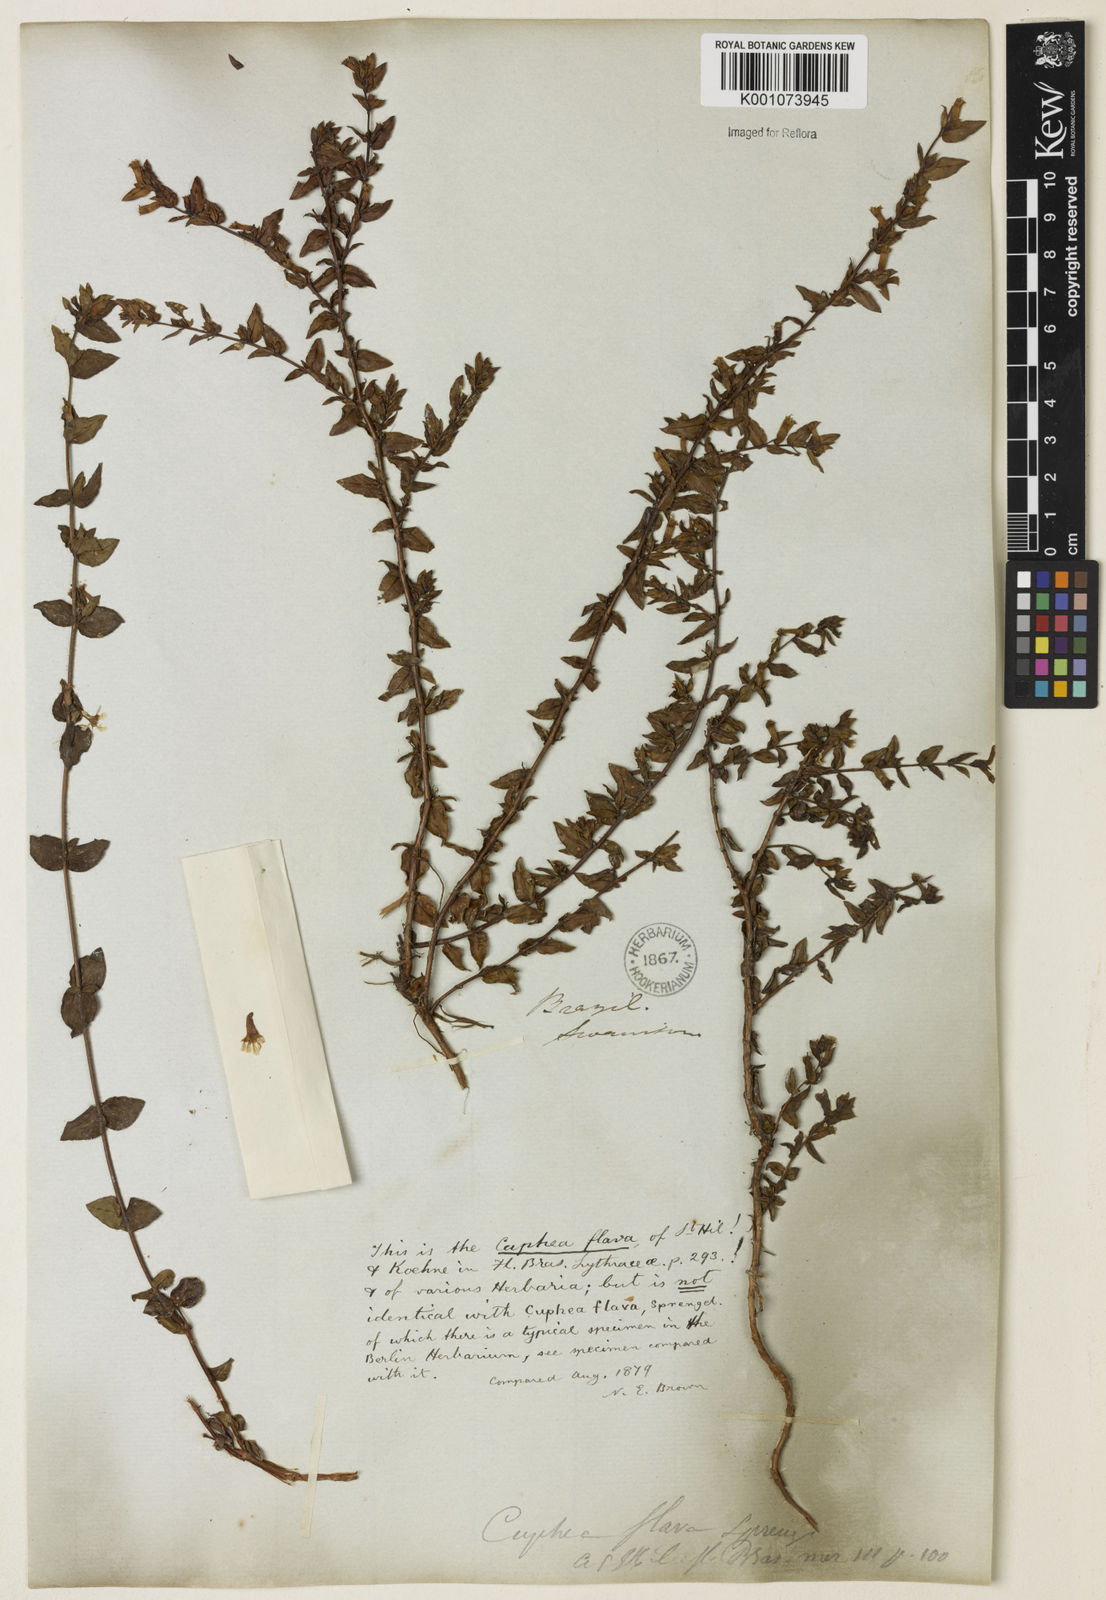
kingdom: Plantae
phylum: Tracheophyta
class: Magnoliopsida
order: Myrtales
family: Lythraceae
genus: Cuphea
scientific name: Cuphea flava
